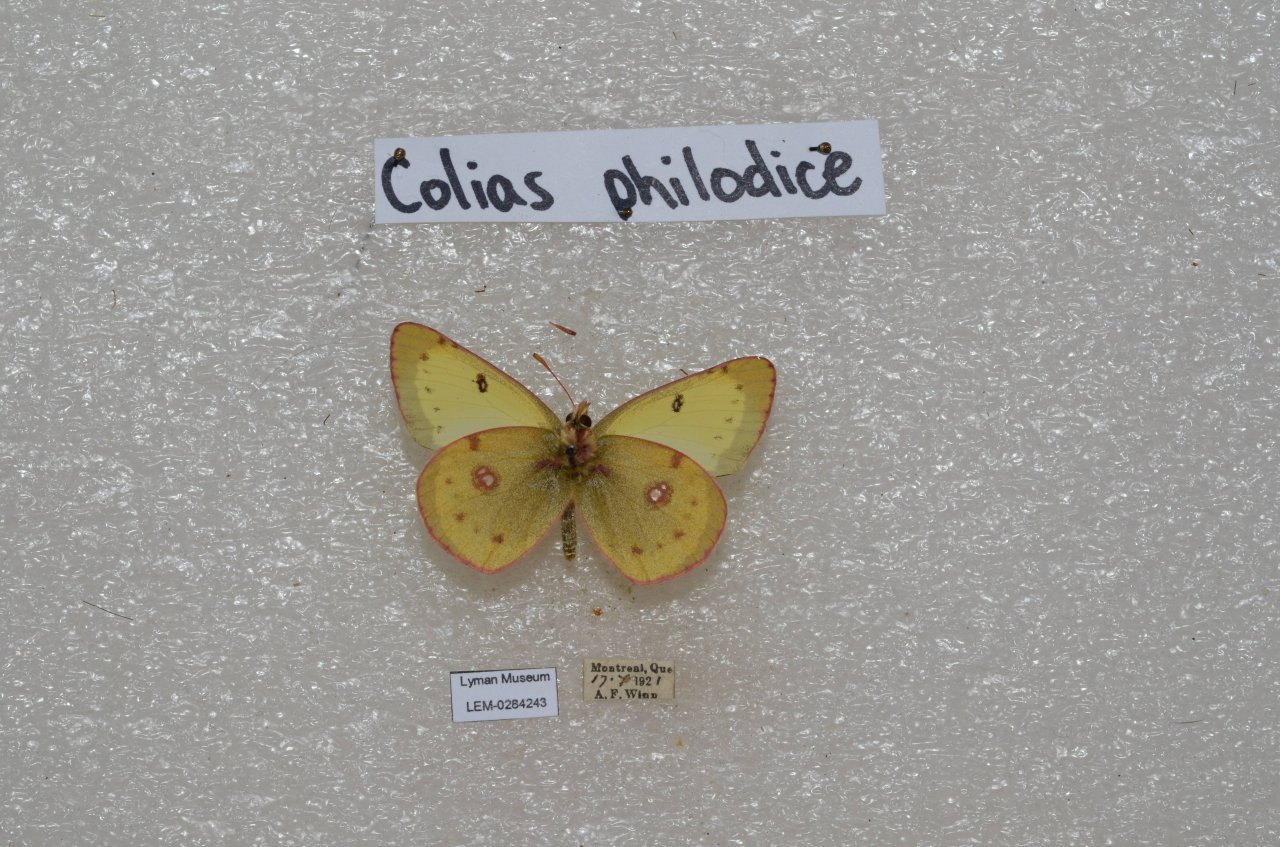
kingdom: Animalia
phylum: Arthropoda
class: Insecta
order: Lepidoptera
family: Pieridae
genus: Colias
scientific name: Colias philodice
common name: Clouded Sulphur
